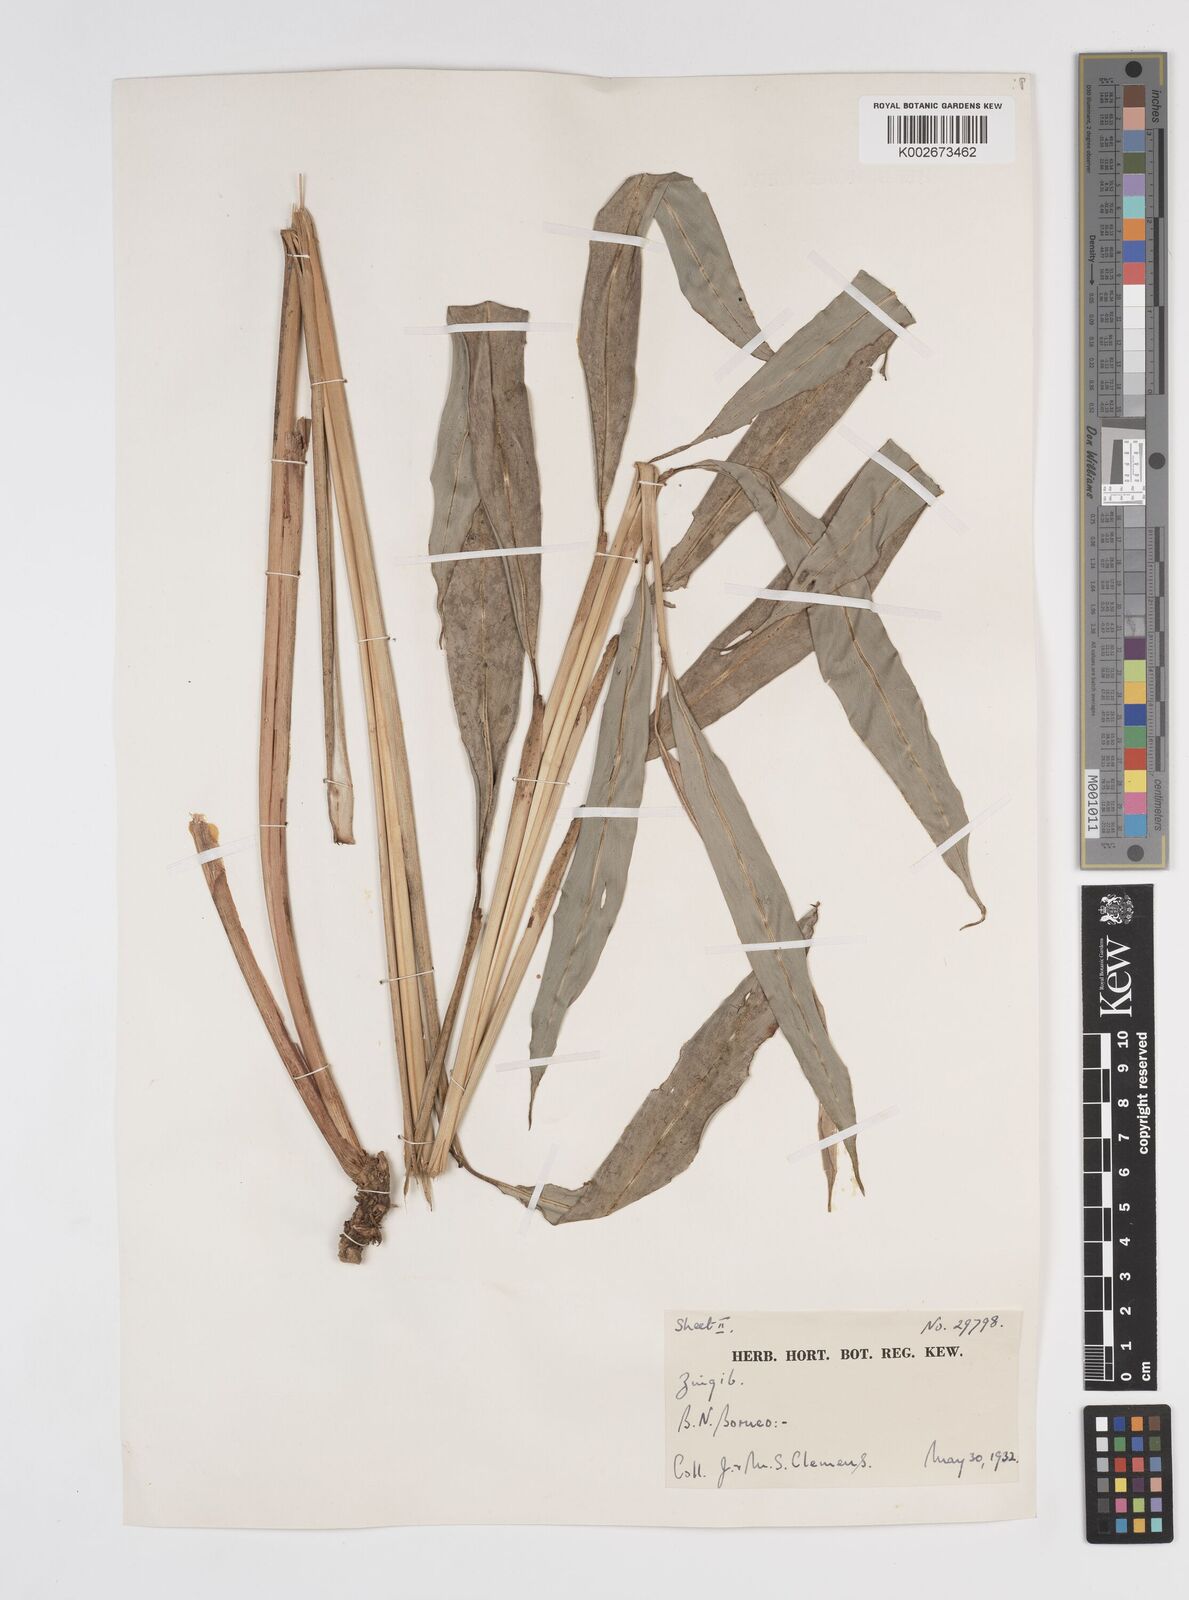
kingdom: Plantae
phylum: Tracheophyta
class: Liliopsida
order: Zingiberales
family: Zingiberaceae
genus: Sundamomum
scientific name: Sundamomum longipedunculatum
